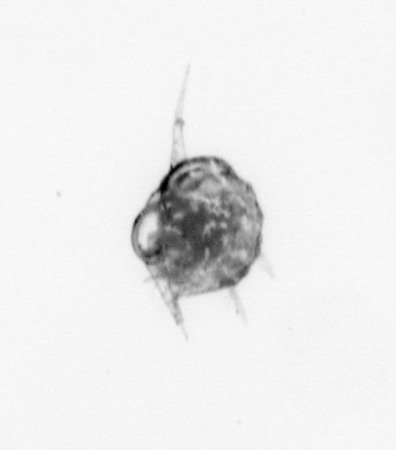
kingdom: Animalia
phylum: Arthropoda
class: Malacostraca
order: Decapoda
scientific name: Decapoda
